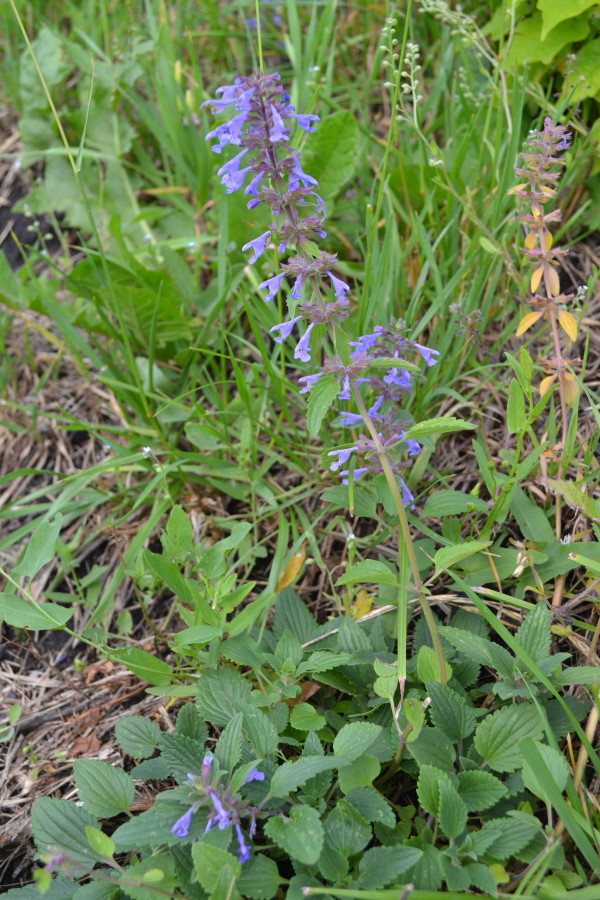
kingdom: Plantae
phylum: Tracheophyta
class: Magnoliopsida
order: Lamiales
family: Lamiaceae
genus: Dracocephalum
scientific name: Dracocephalum nutans
